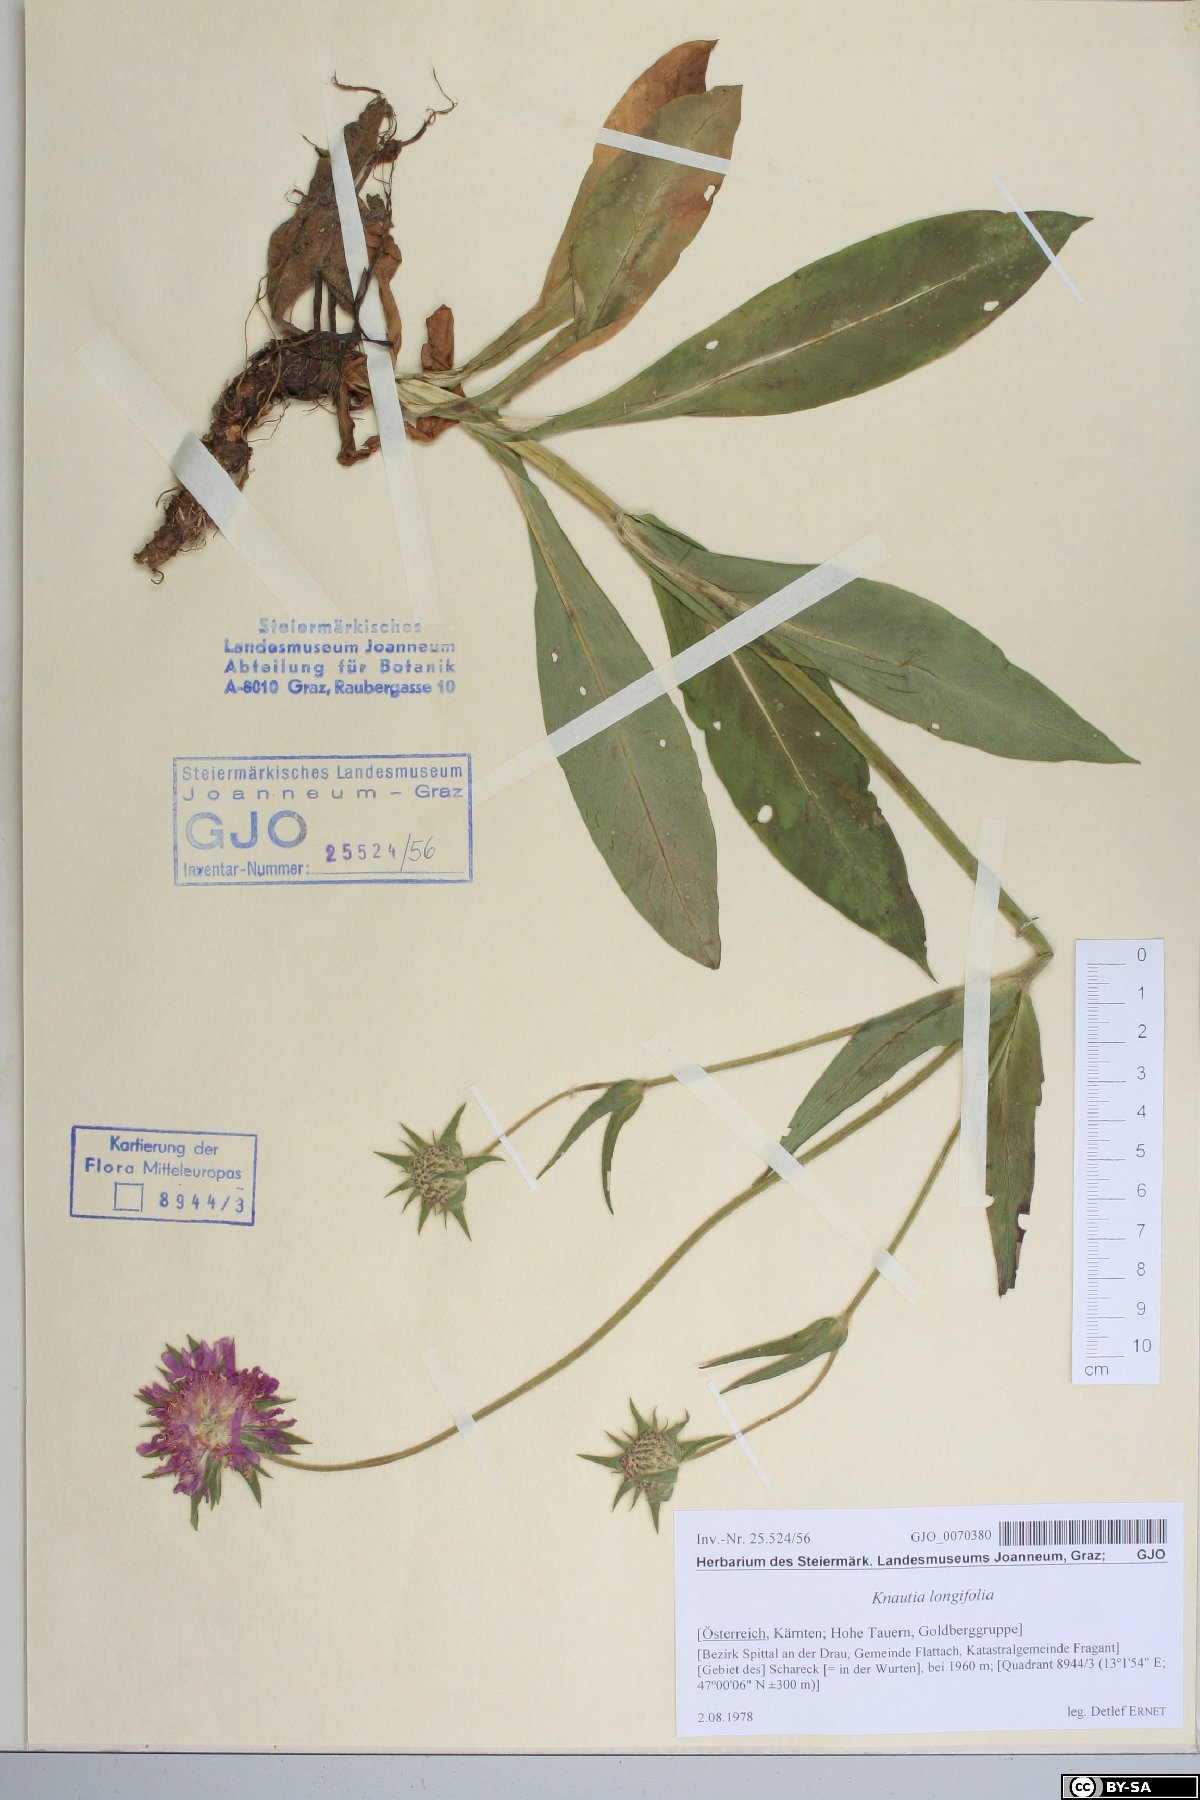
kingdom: Plantae
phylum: Tracheophyta
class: Magnoliopsida
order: Dipsacales
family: Caprifoliaceae
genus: Knautia
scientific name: Knautia longifolia
